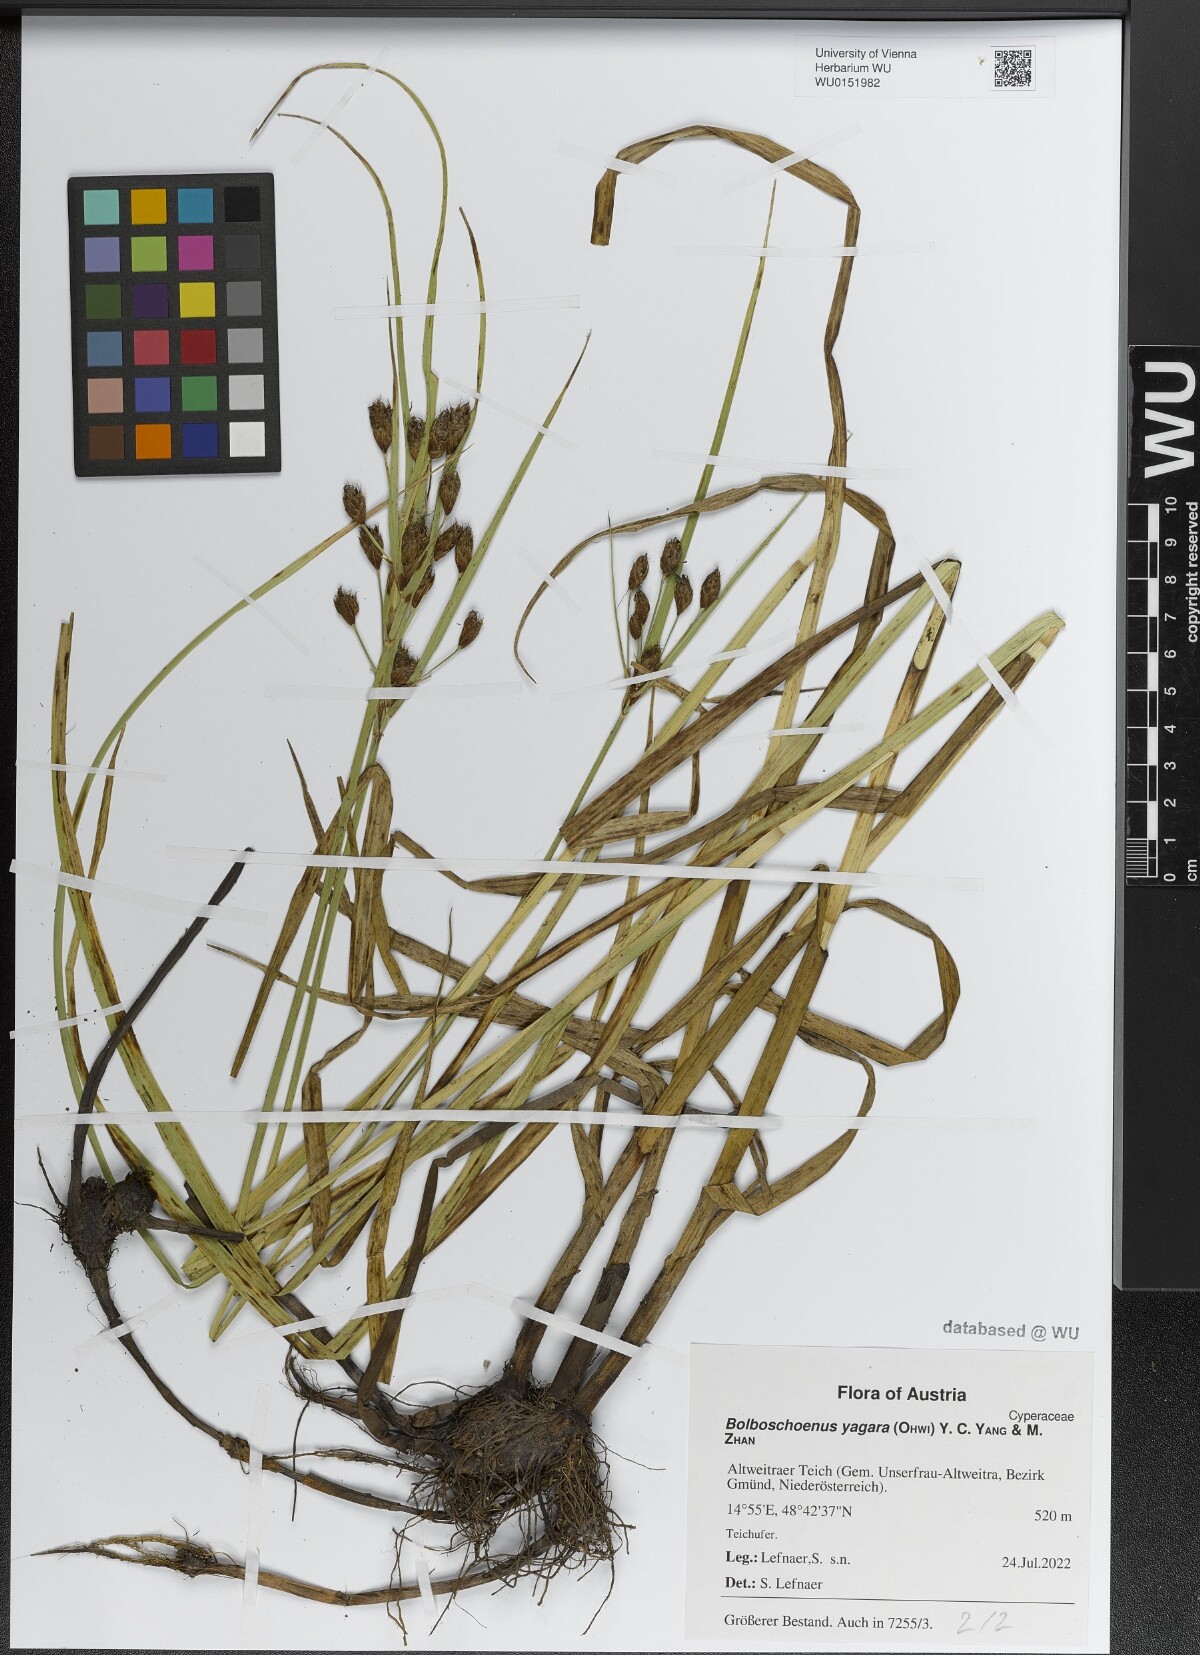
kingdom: Plantae
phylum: Tracheophyta
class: Liliopsida
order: Poales
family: Cyperaceae
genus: Bolboschoenus
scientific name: Bolboschoenus yagara
